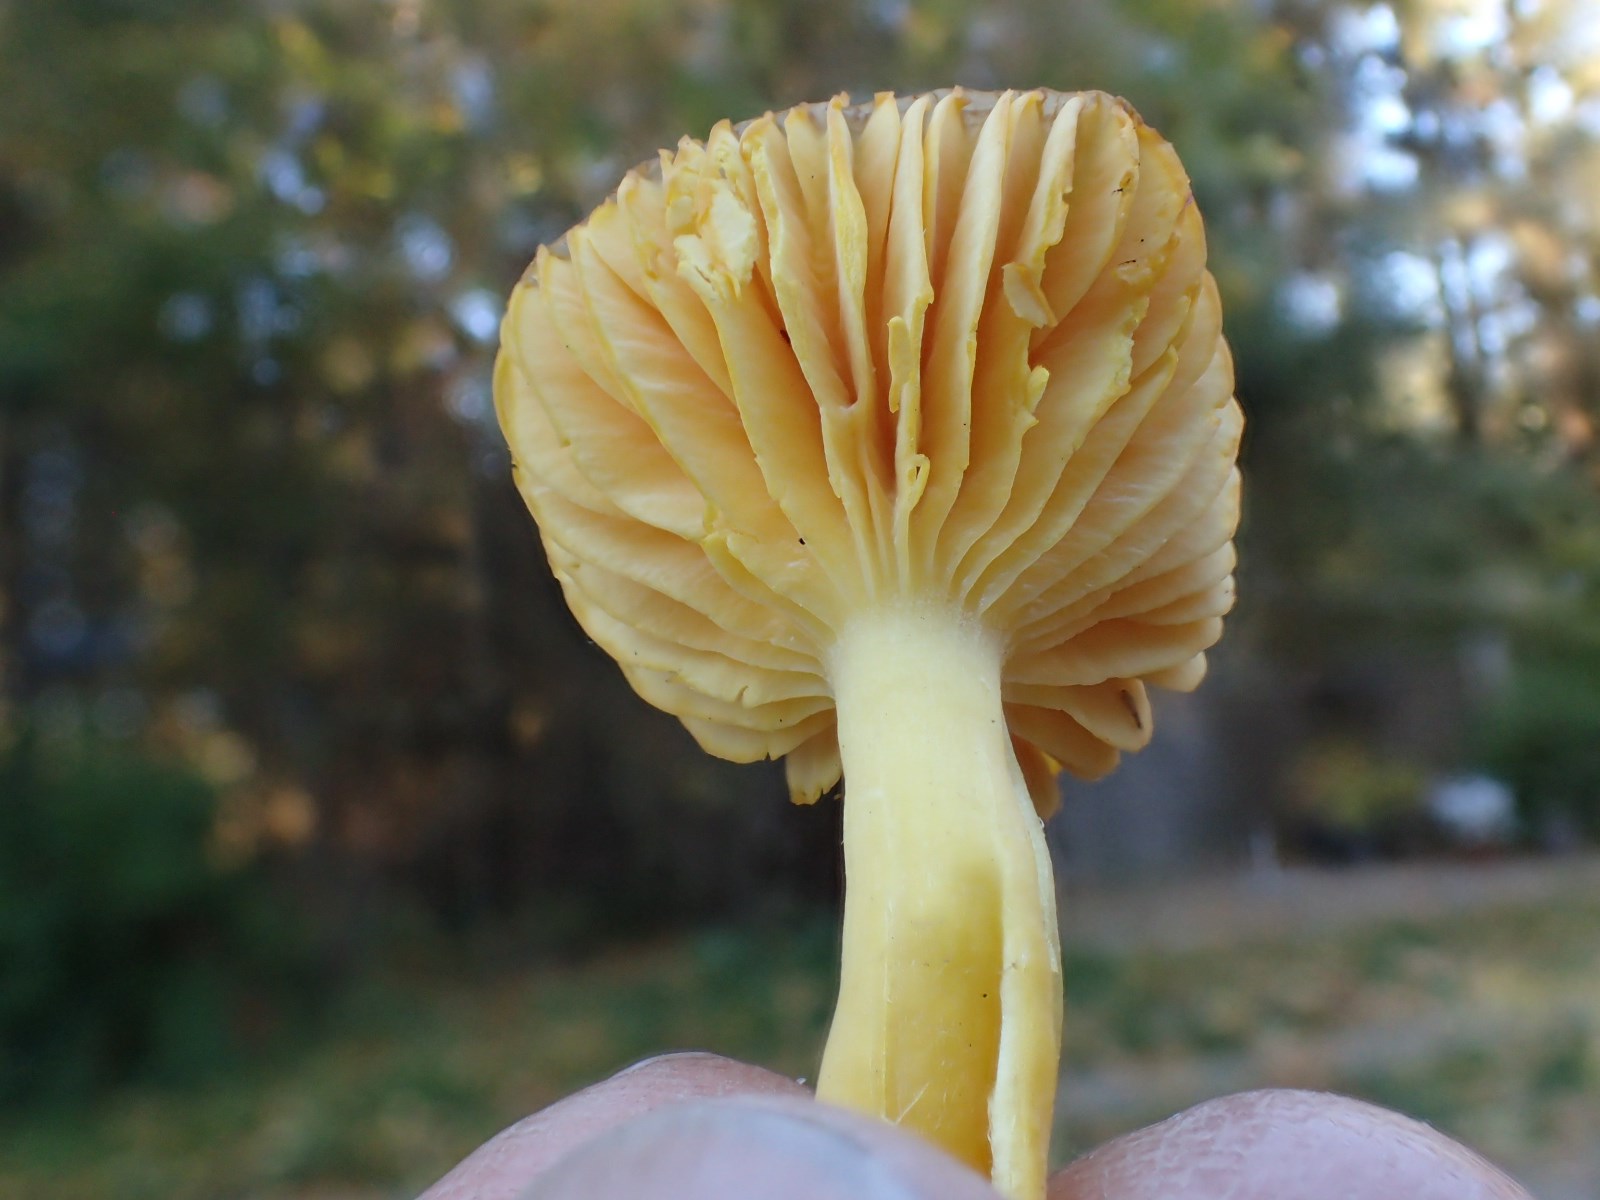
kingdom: Fungi
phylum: Basidiomycota
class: Agaricomycetes
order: Agaricales
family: Hygrophoraceae
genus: Hygrocybe
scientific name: Hygrocybe chlorophana
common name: gul vokshat
